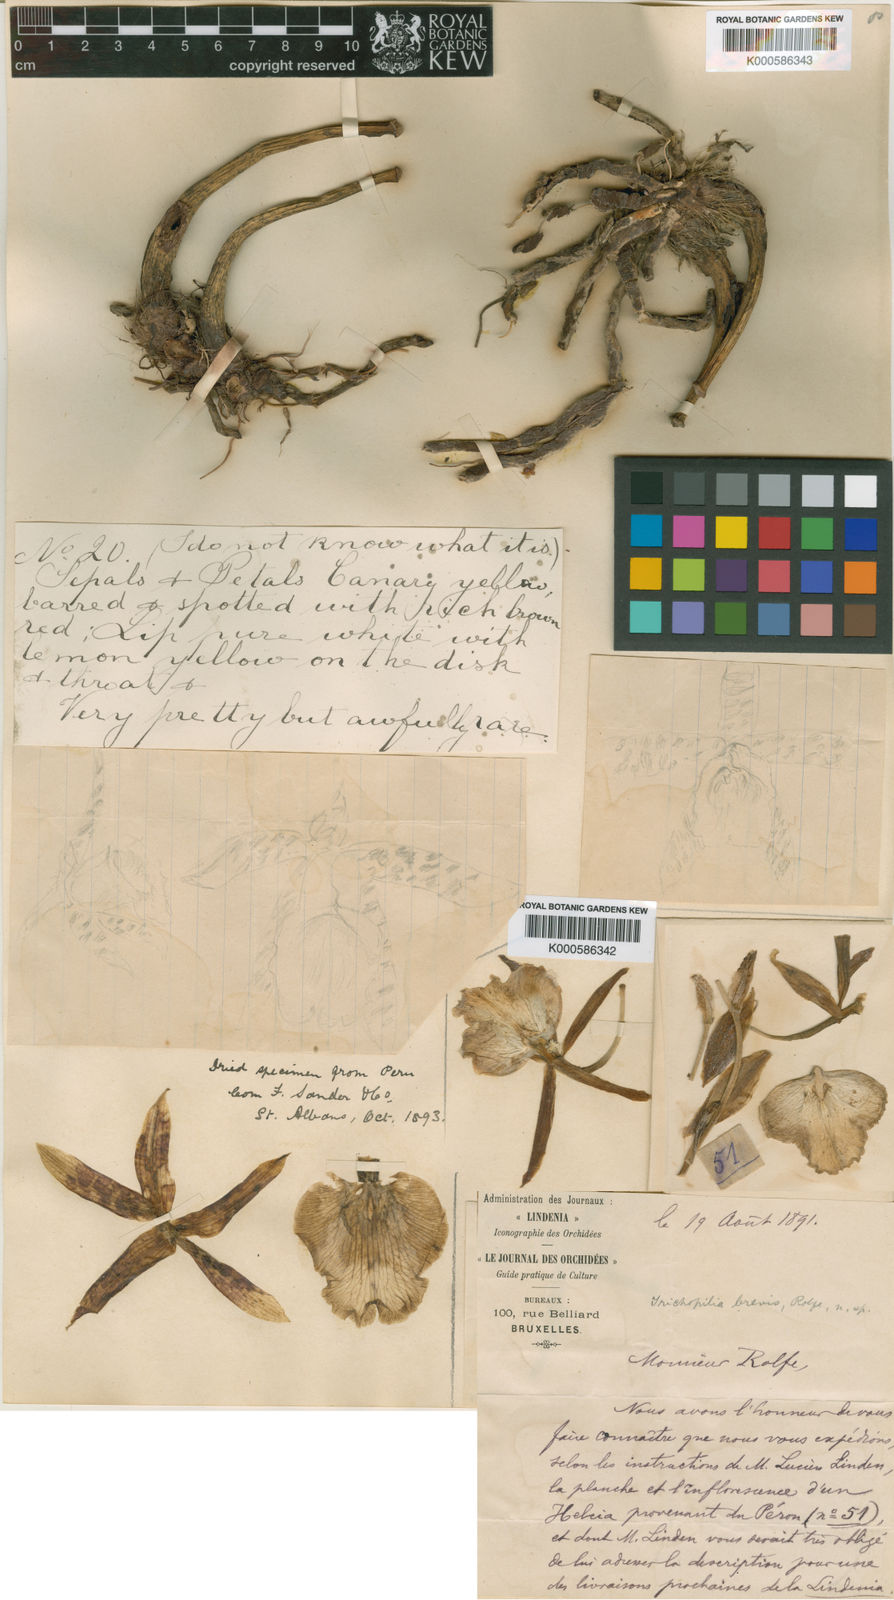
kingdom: Plantae
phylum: Tracheophyta
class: Liliopsida
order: Asparagales
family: Orchidaceae
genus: Trichopilia
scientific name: Trichopilia brevis
